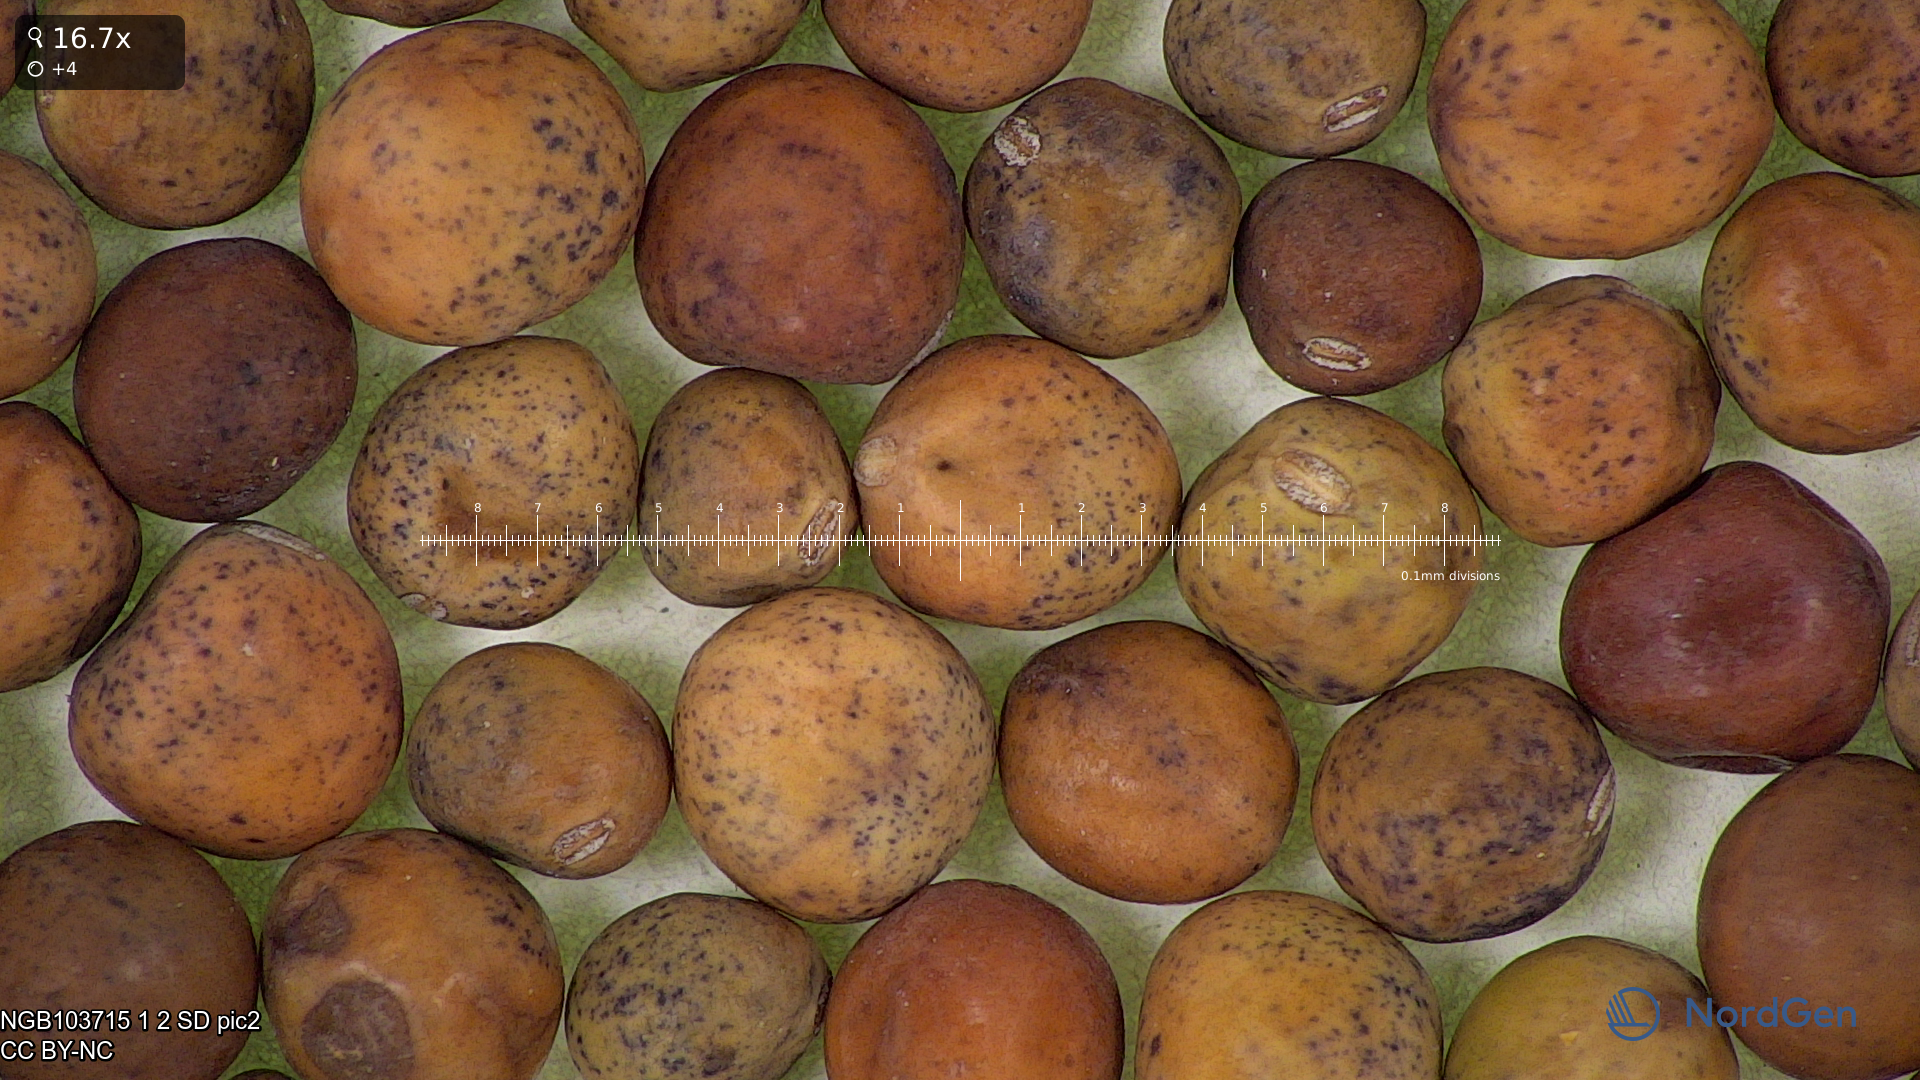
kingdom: Plantae
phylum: Tracheophyta
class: Magnoliopsida
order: Fabales
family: Fabaceae
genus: Lathyrus
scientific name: Lathyrus oleraceus
